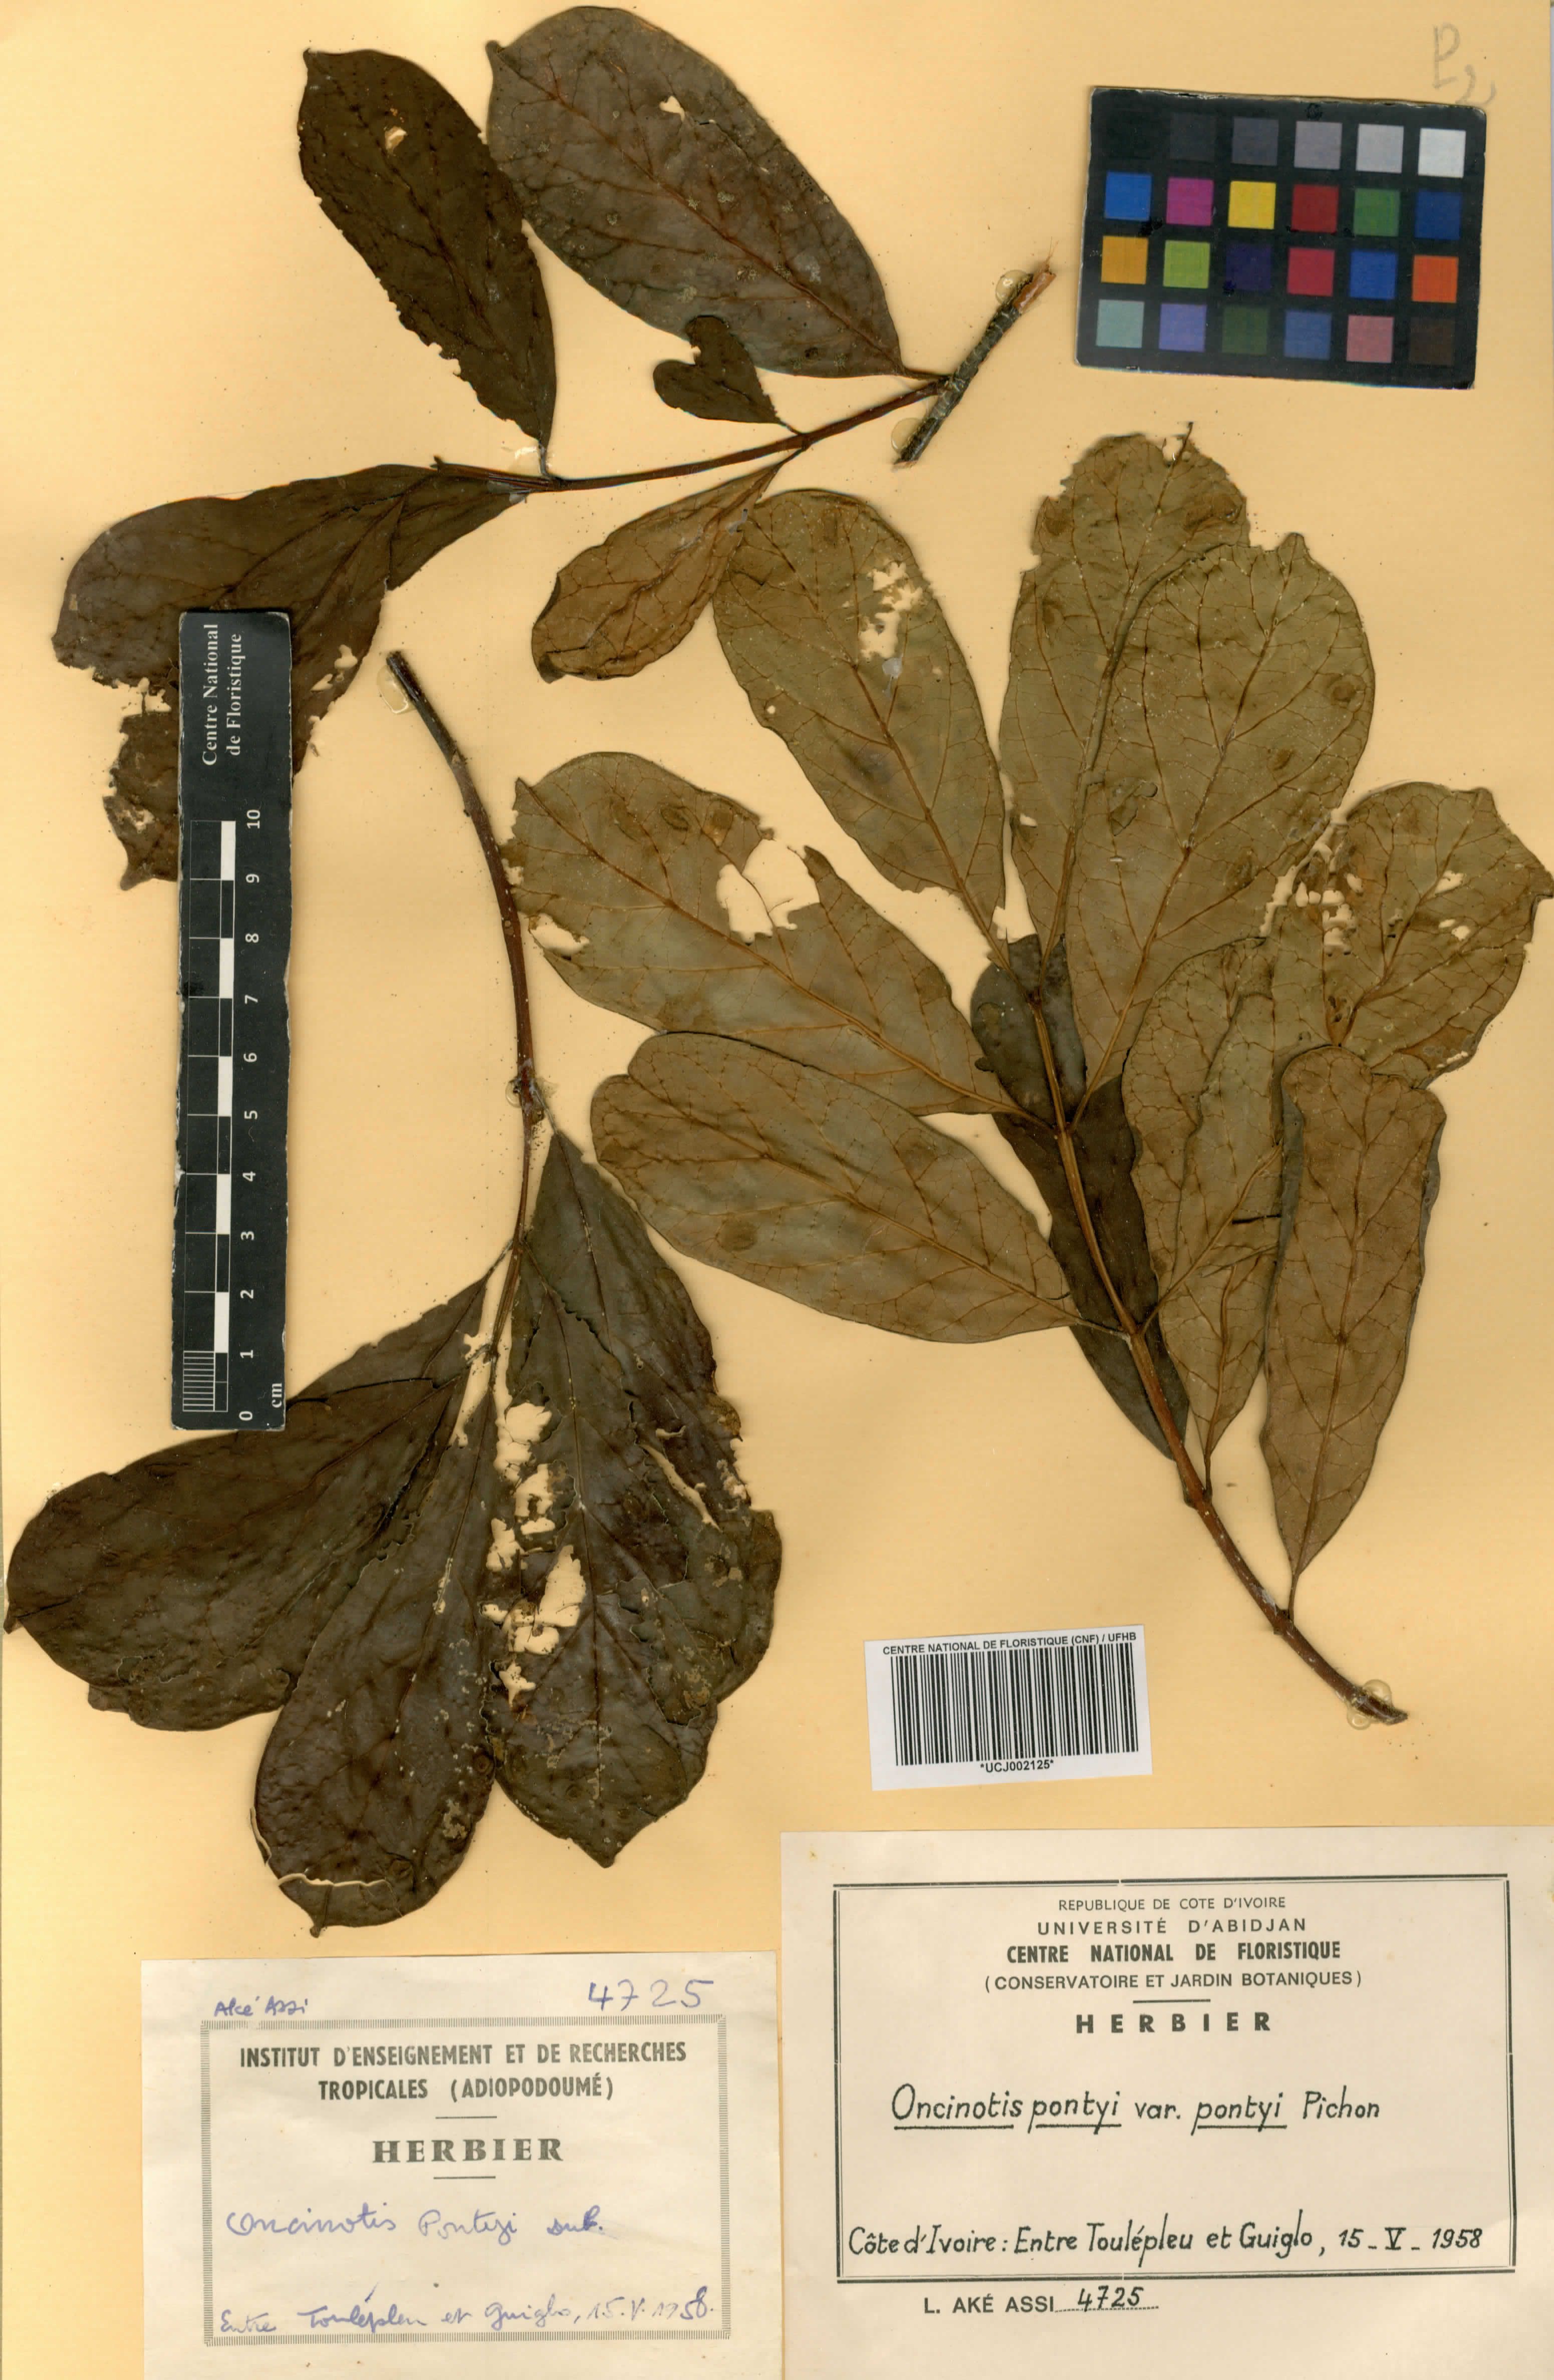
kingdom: Plantae
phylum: Tracheophyta
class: Magnoliopsida
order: Gentianales
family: Apocynaceae
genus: Oncinotis
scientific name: Oncinotis pontyi
